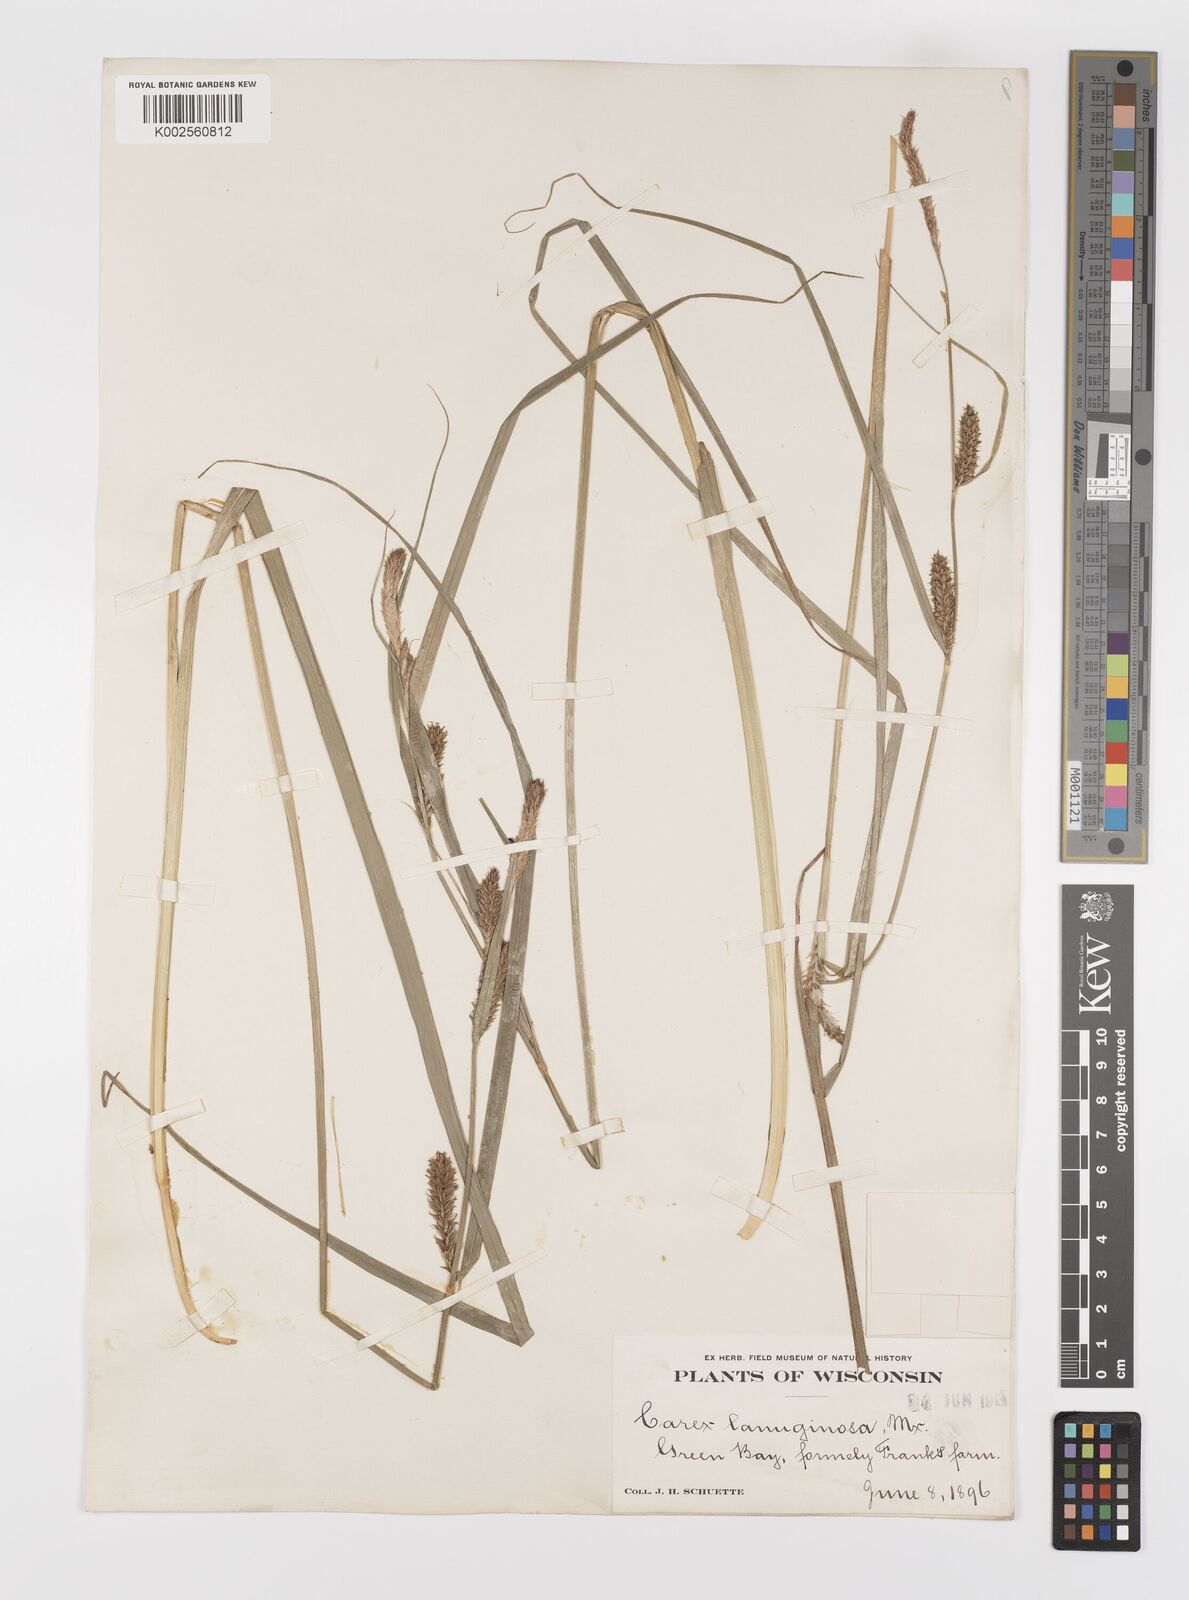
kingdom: Plantae
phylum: Tracheophyta
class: Liliopsida
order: Poales
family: Cyperaceae
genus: Carex
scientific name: Carex lasiocarpa
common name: Slender sedge
